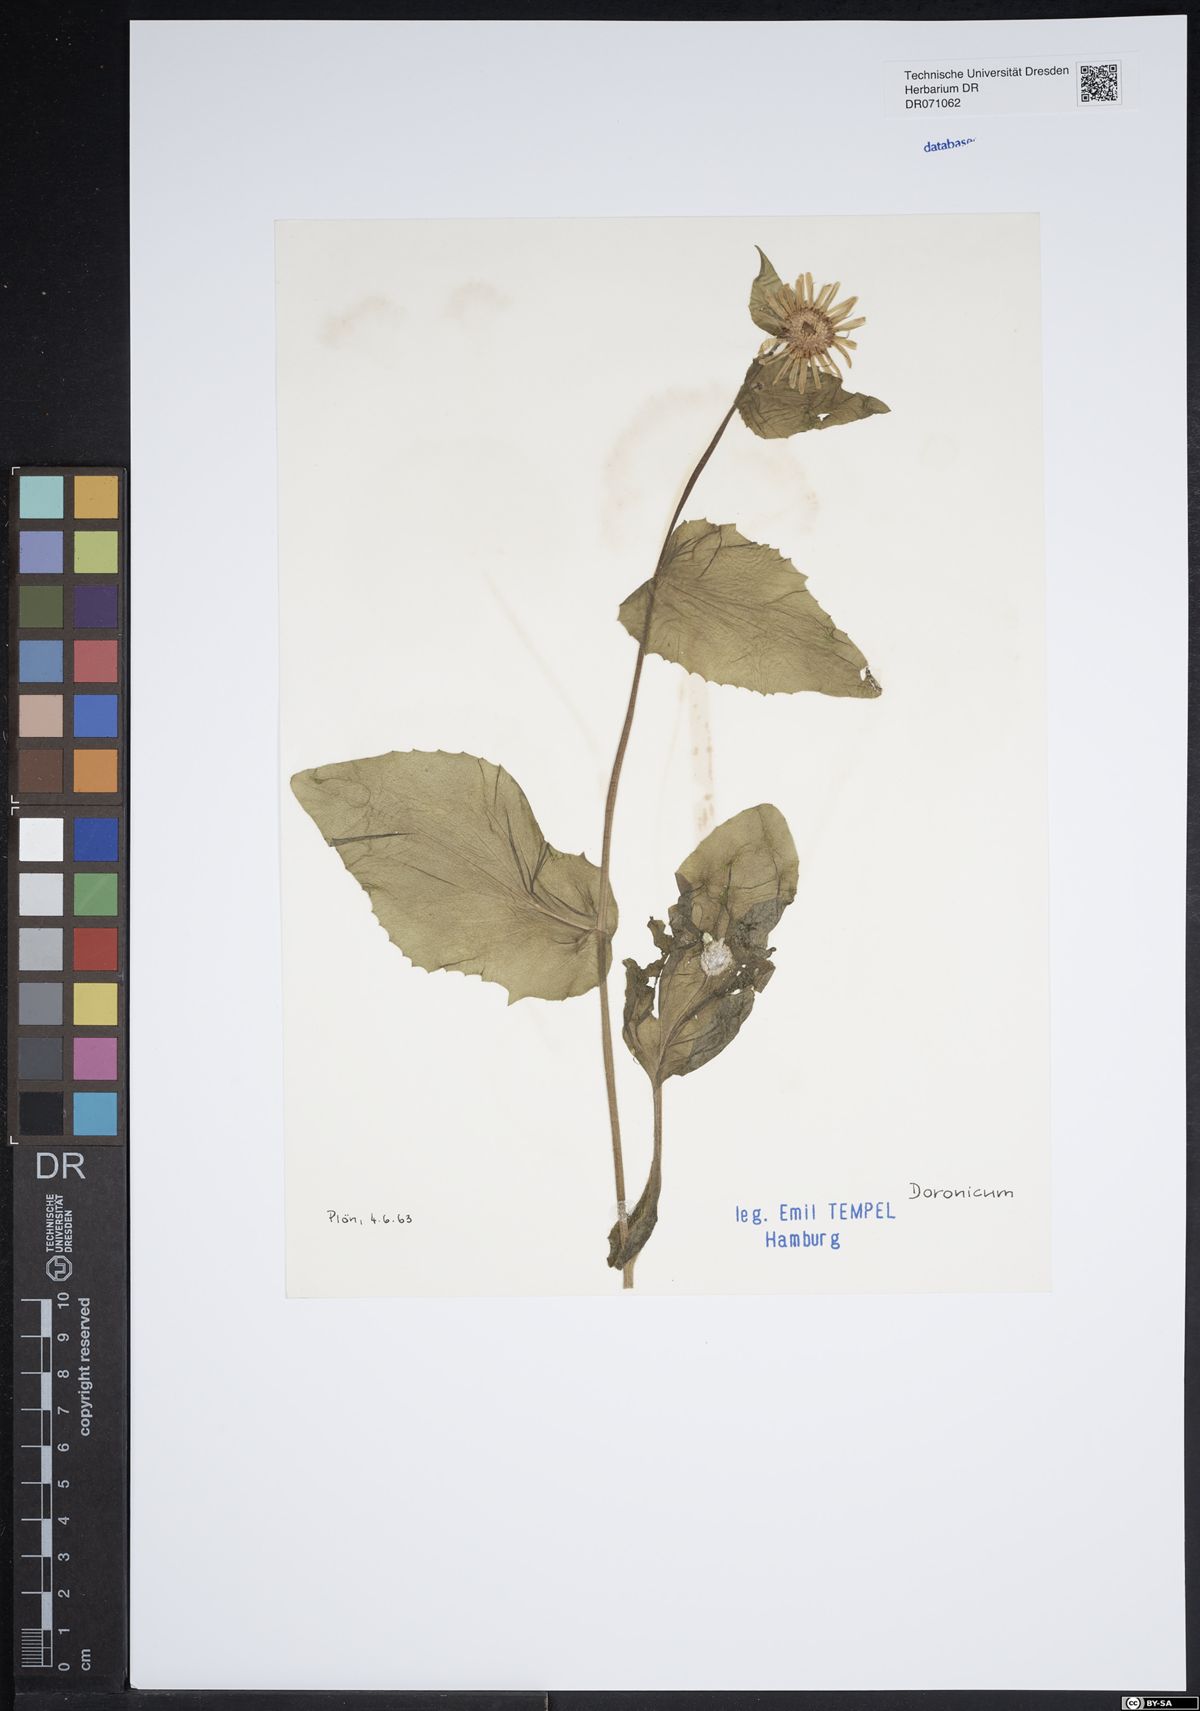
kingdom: Plantae
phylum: Tracheophyta
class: Magnoliopsida
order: Asterales
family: Asteraceae
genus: Doronicum
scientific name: Doronicum
